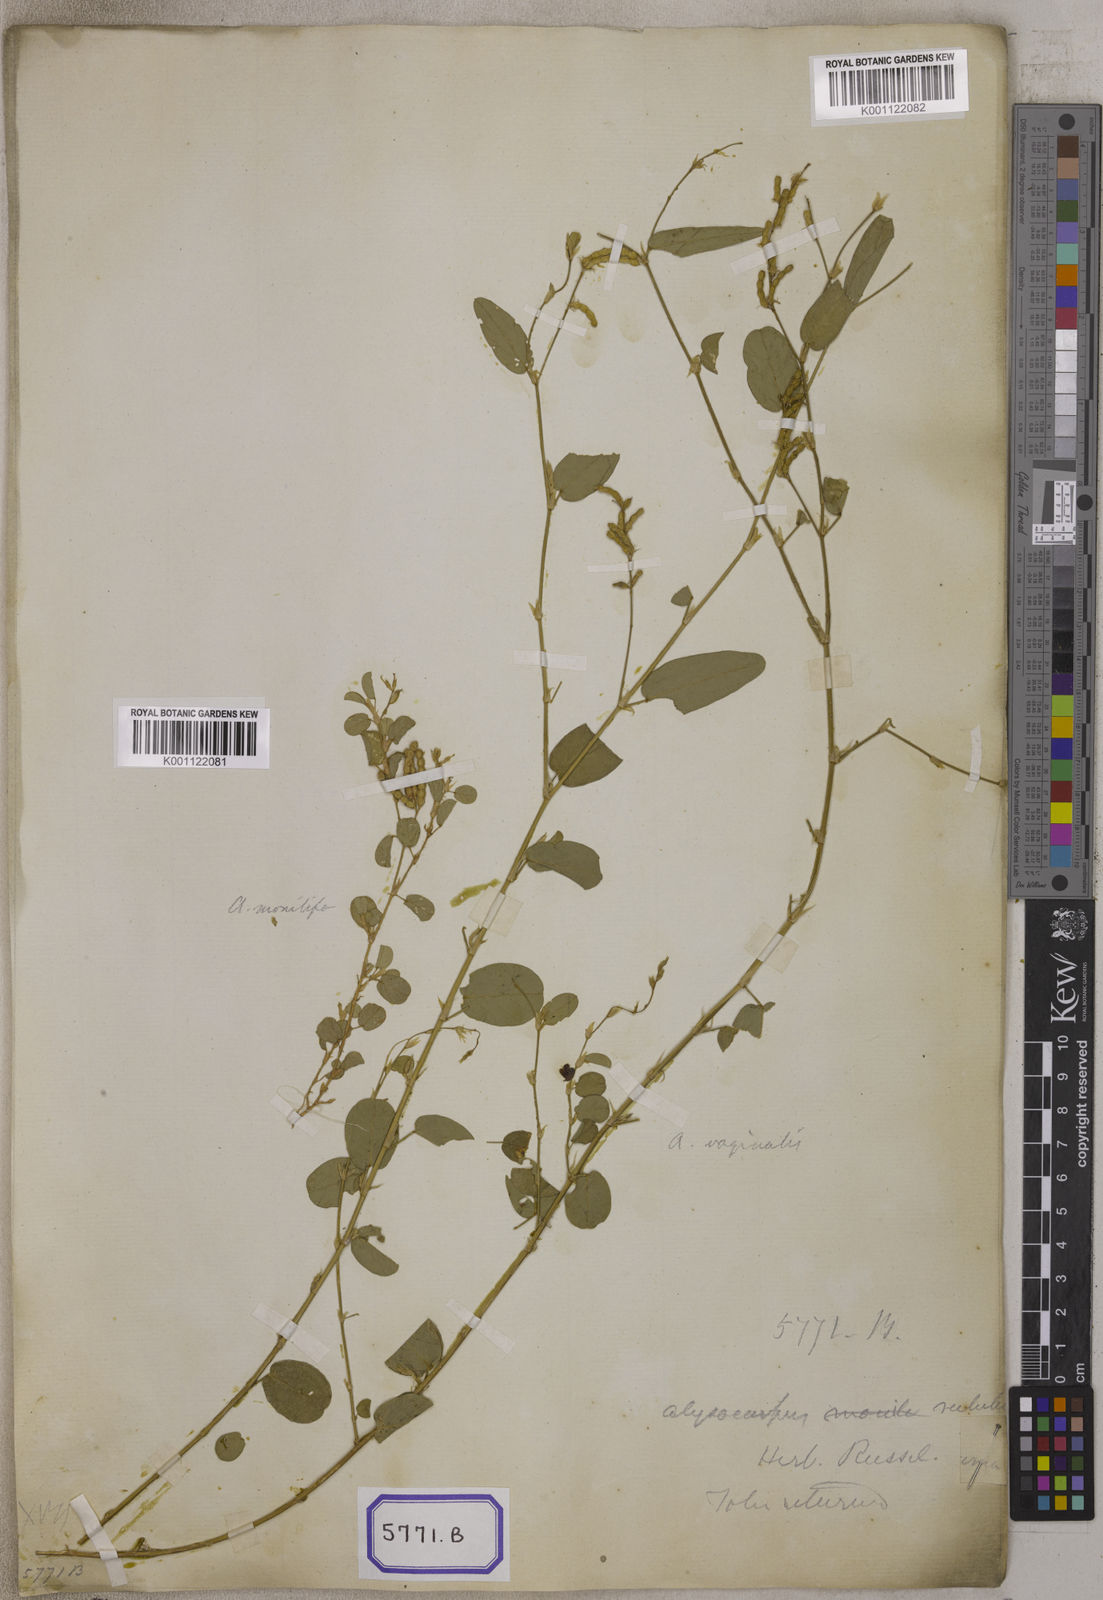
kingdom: Plantae
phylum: Tracheophyta
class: Magnoliopsida
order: Fabales
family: Fabaceae
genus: Alysicarpus
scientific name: Alysicarpus vaginalis
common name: White moneywort
